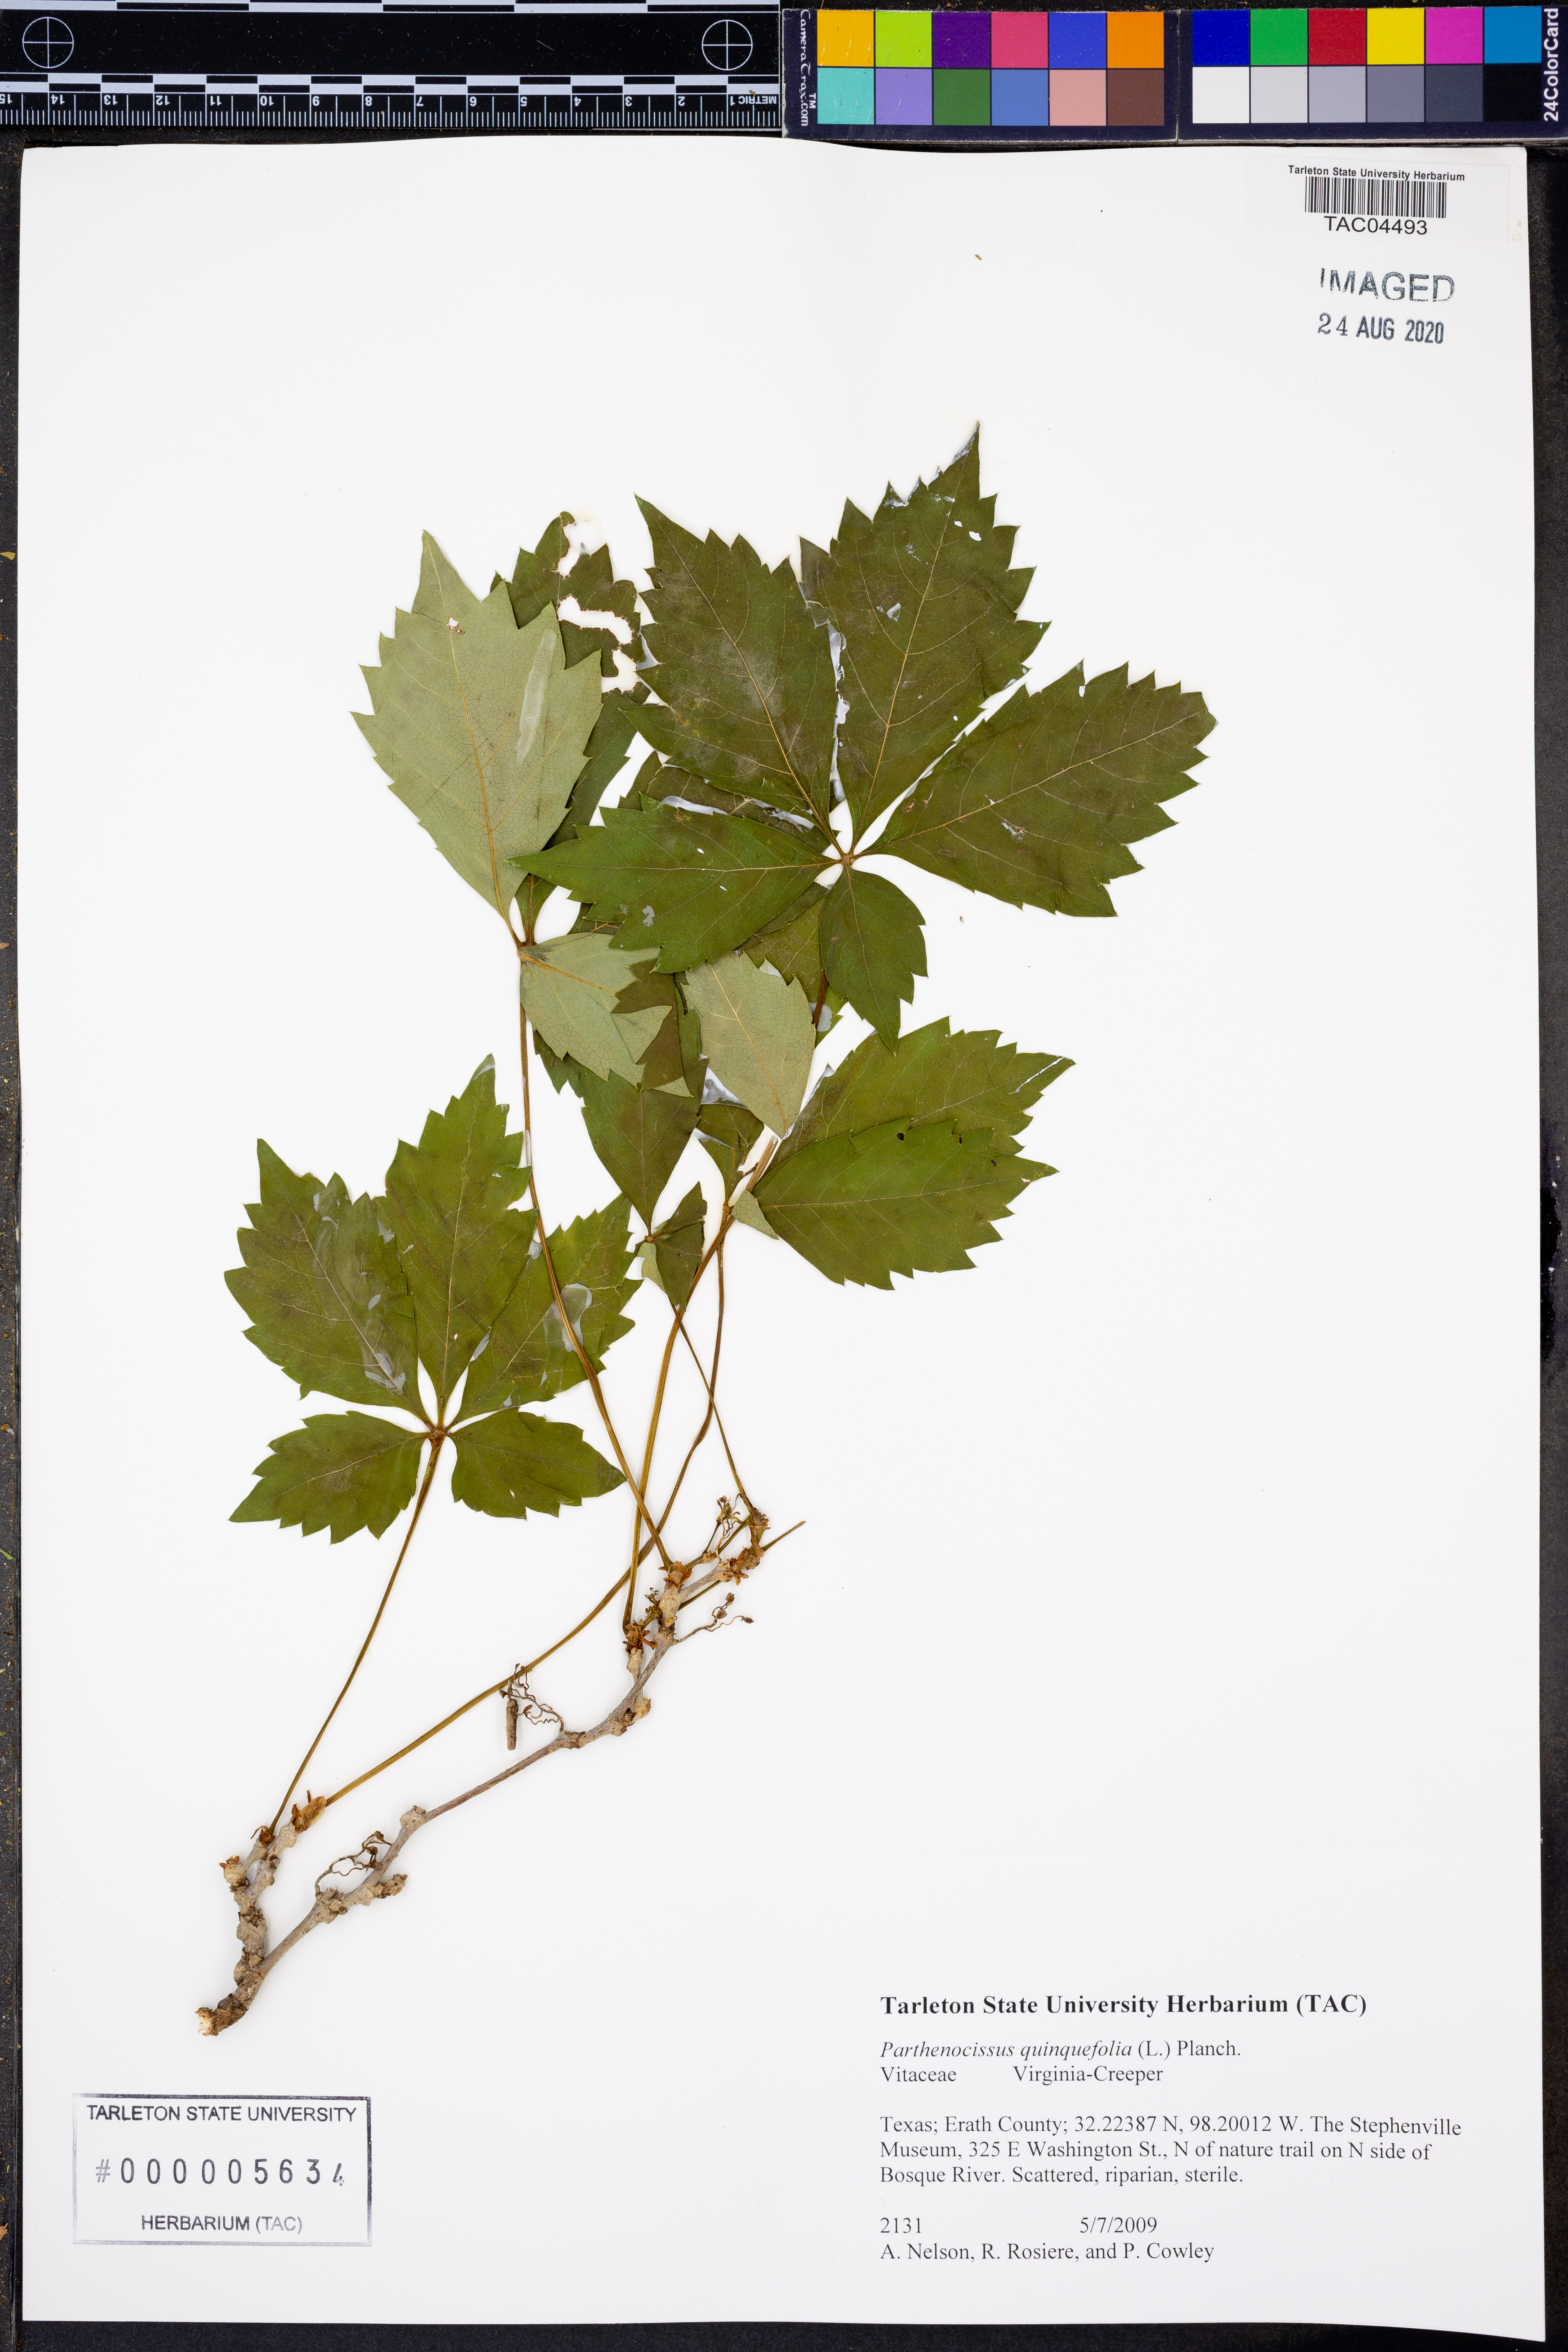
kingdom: Plantae
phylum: Tracheophyta
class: Magnoliopsida
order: Vitales
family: Vitaceae
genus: Parthenocissus
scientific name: Parthenocissus quinquefolia
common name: Virginia-creeper
